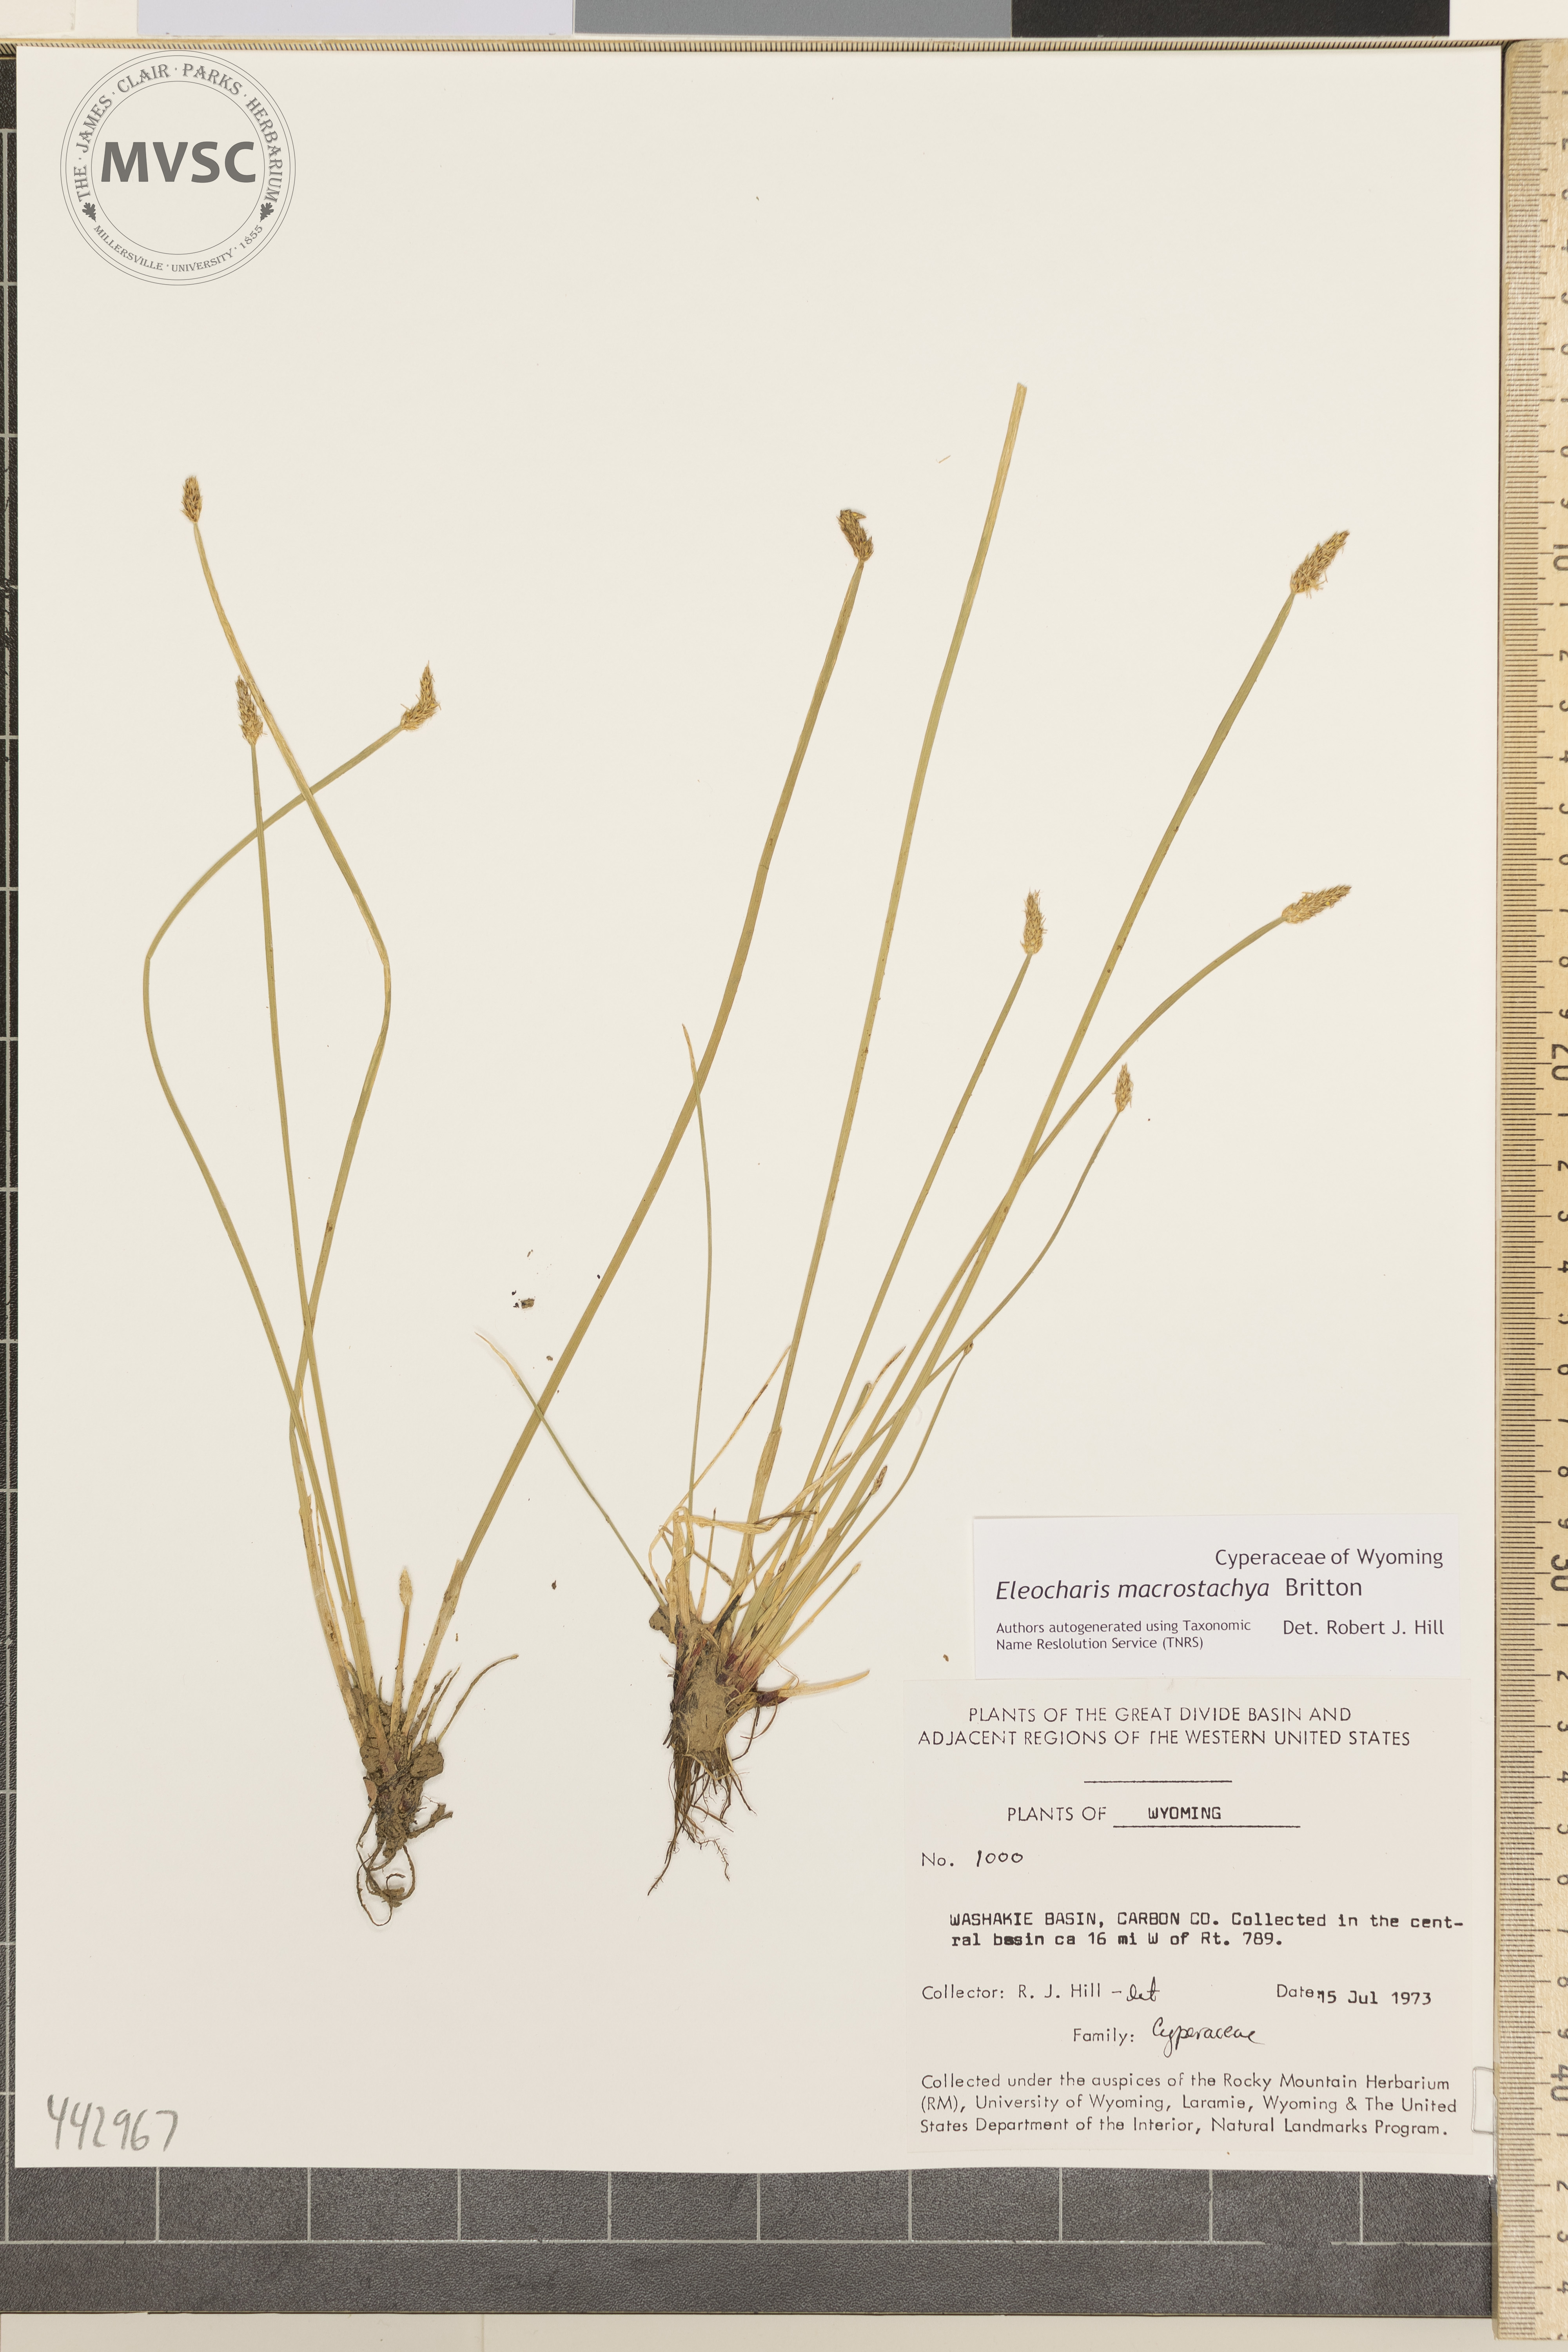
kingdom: Plantae
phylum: Tracheophyta
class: Liliopsida
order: Poales
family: Cyperaceae
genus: Eleocharis
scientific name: Eleocharis macrostachya
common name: Pale spikerush
